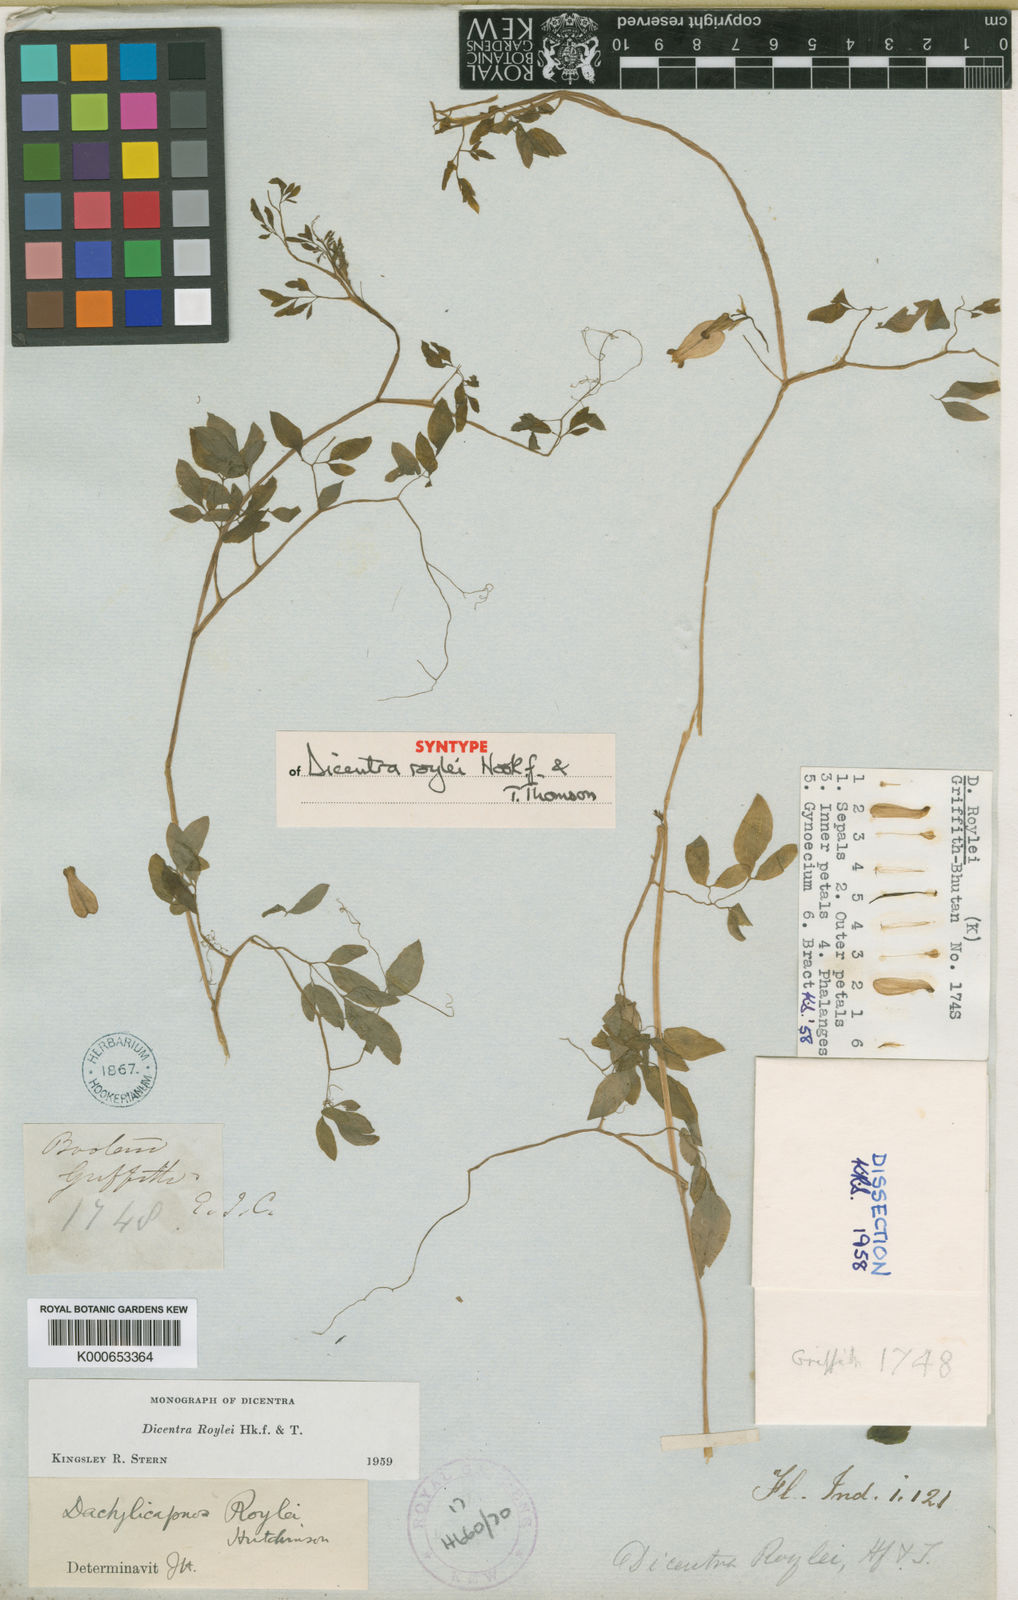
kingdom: Plantae
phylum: Tracheophyta
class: Magnoliopsida
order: Ranunculales
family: Papaveraceae
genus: Dactylicapnos
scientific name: Dactylicapnos roylei
